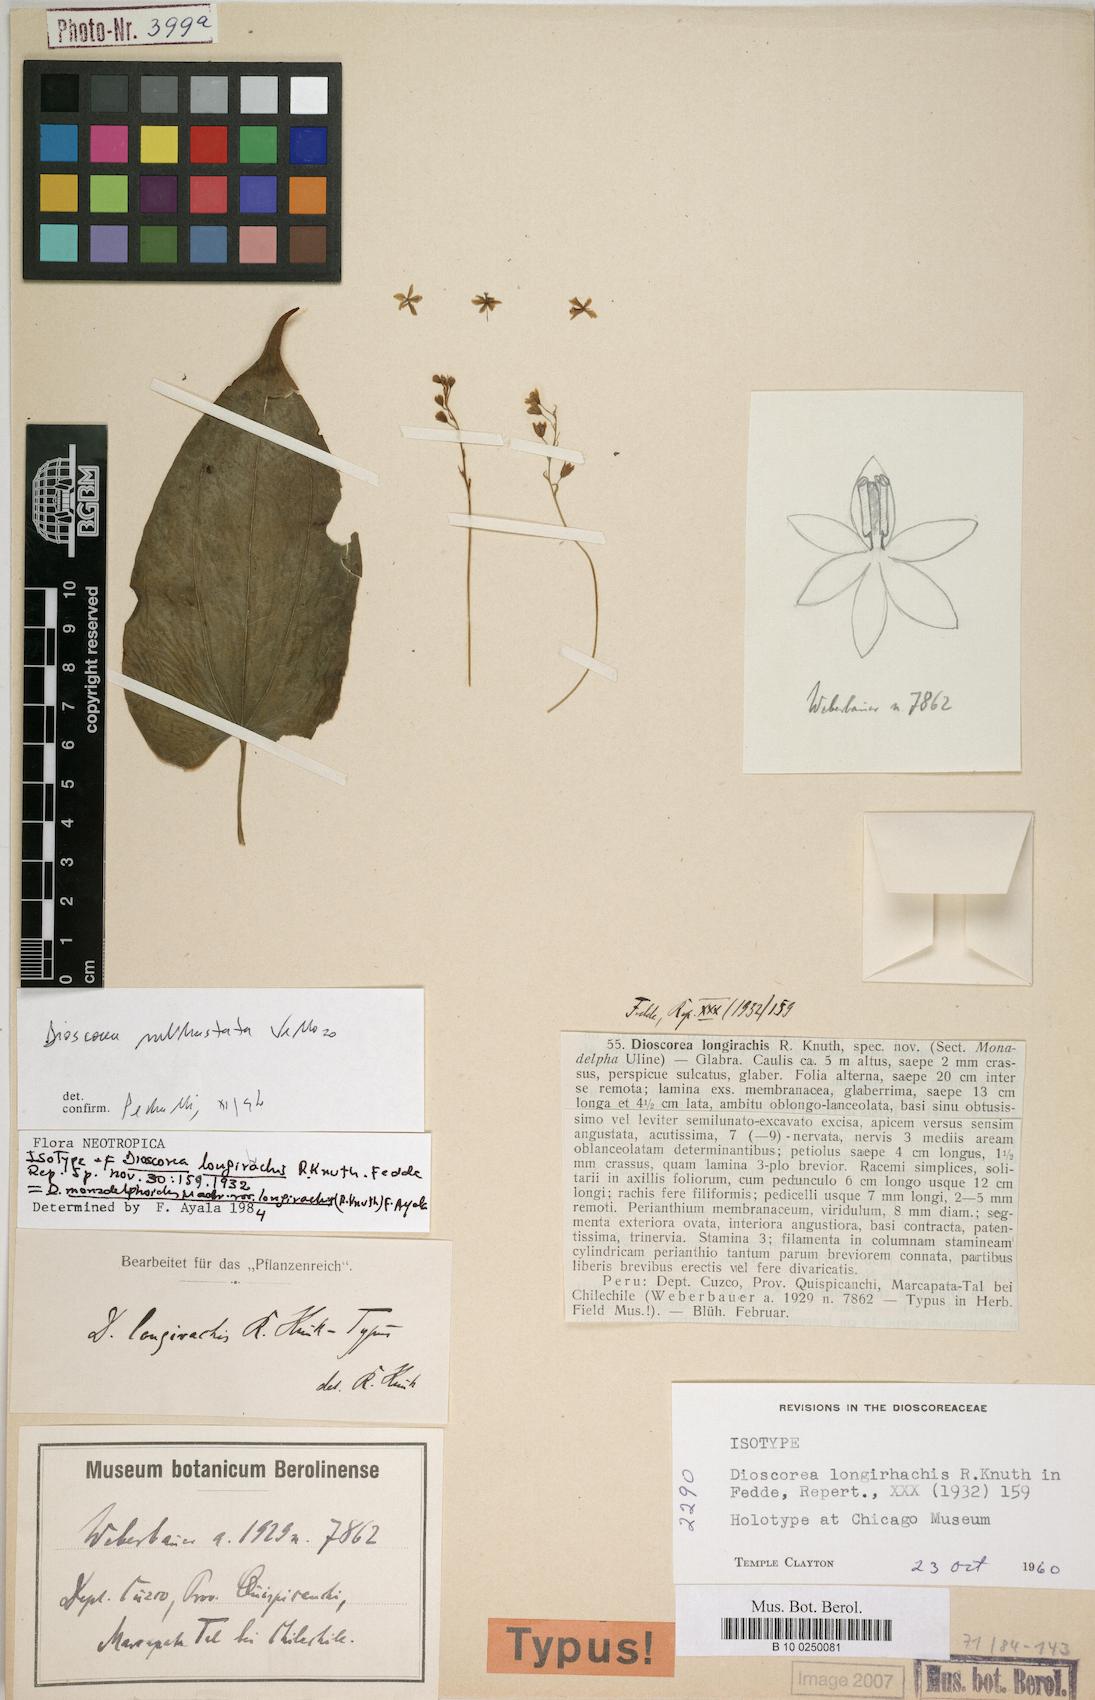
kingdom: Plantae
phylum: Tracheophyta
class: Liliopsida
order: Dioscoreales
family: Dioscoreaceae
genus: Dioscorea
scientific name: Dioscorea monadelpha
